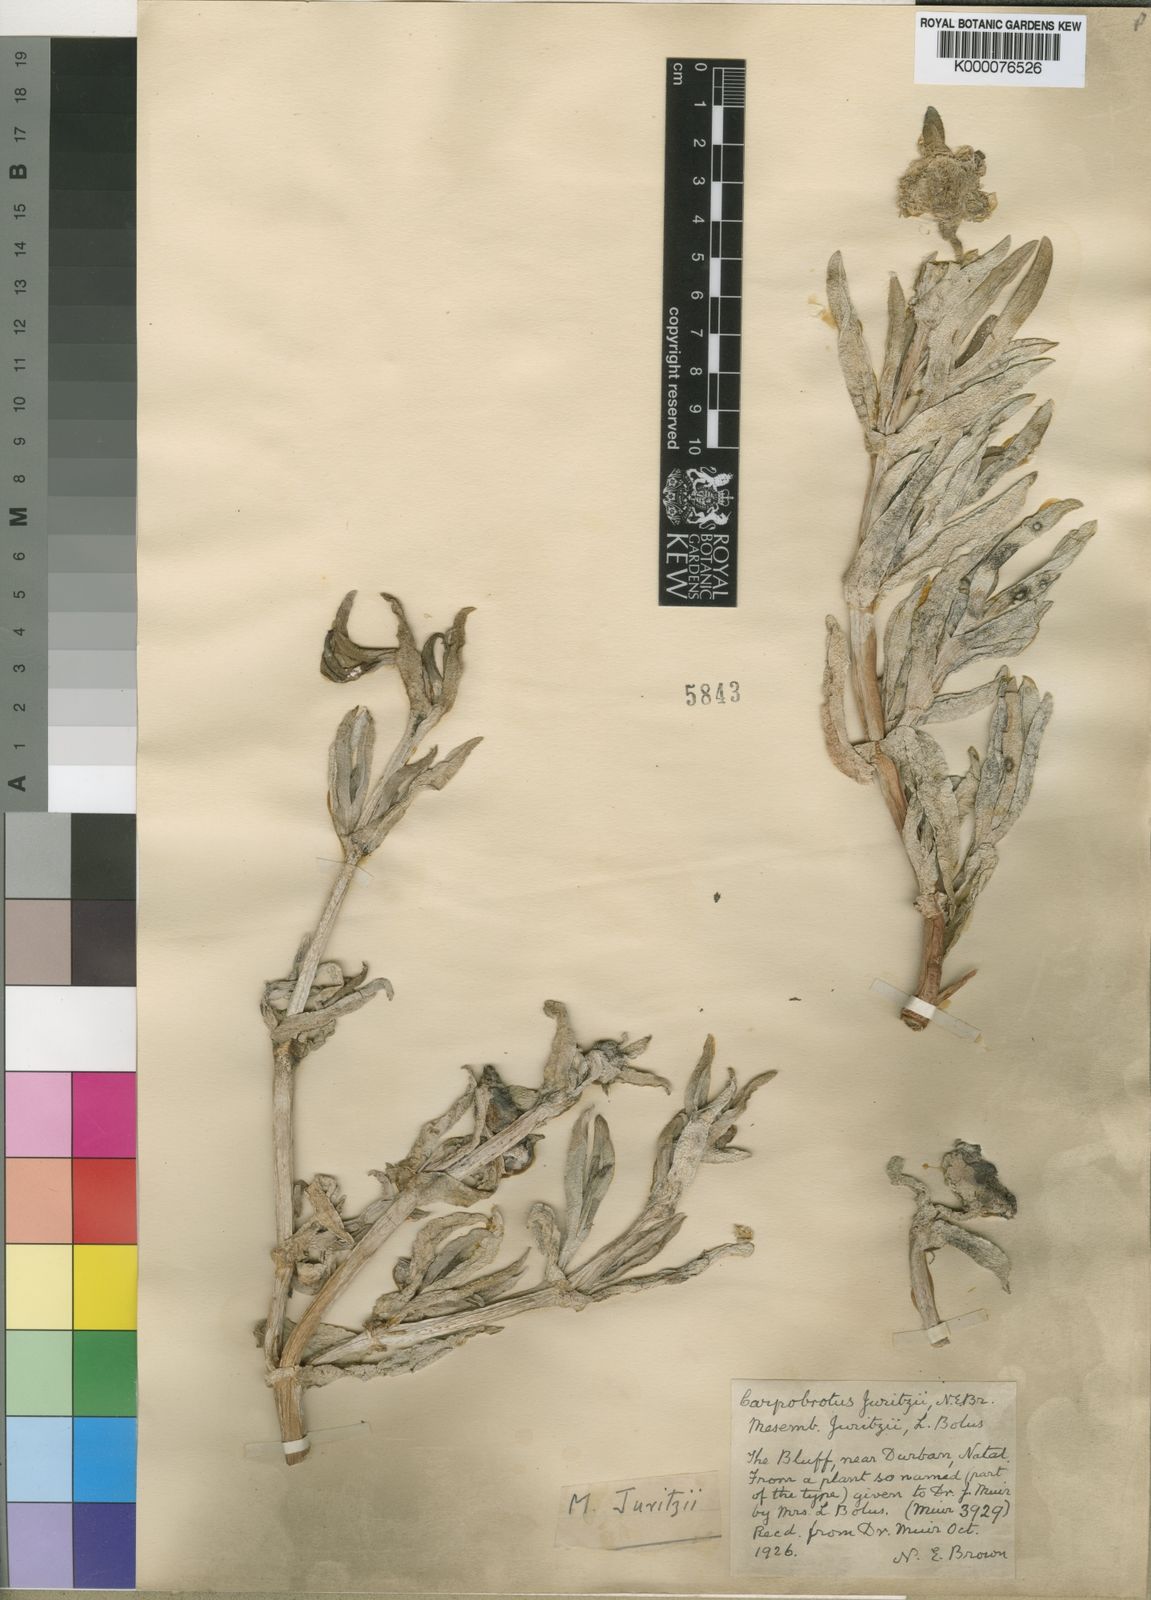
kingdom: Plantae
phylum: Tracheophyta
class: Magnoliopsida
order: Caryophyllales
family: Aizoaceae
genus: Carpobrotus
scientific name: Carpobrotus dimidiatus
